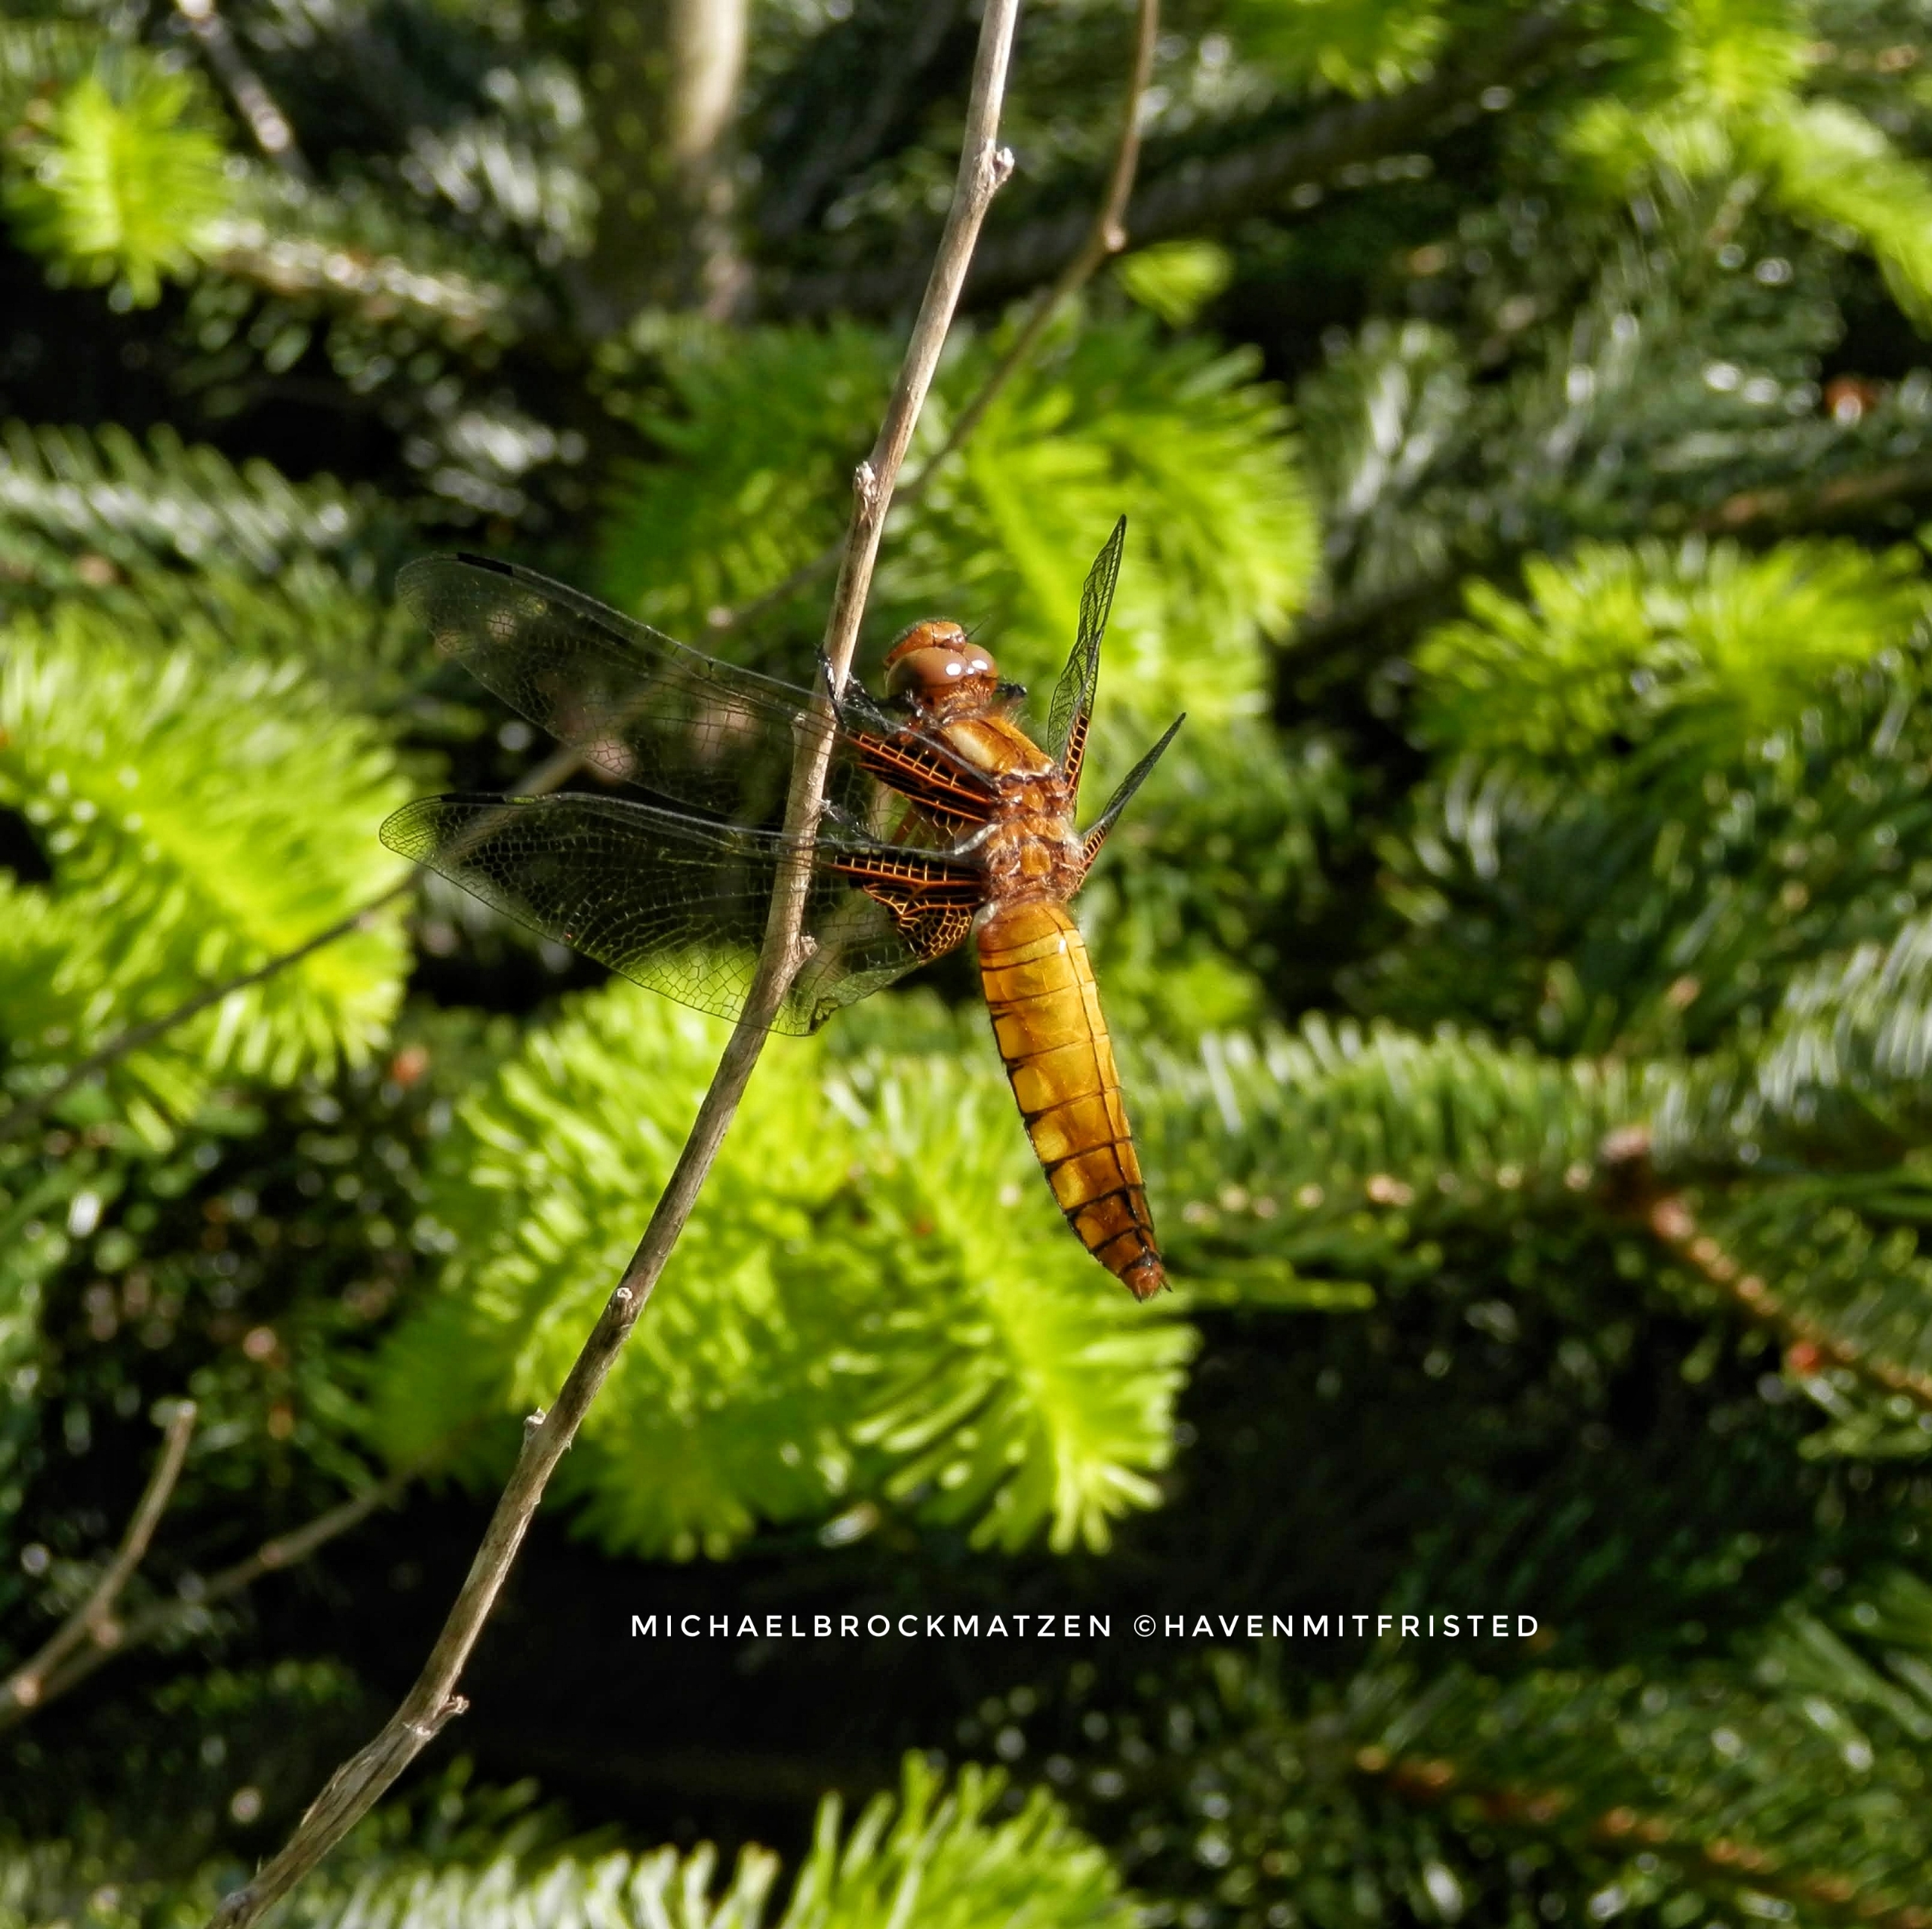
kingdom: Animalia
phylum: Arthropoda
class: Insecta
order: Odonata
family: Libellulidae
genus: Libellula
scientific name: Libellula depressa
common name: Blå libel
